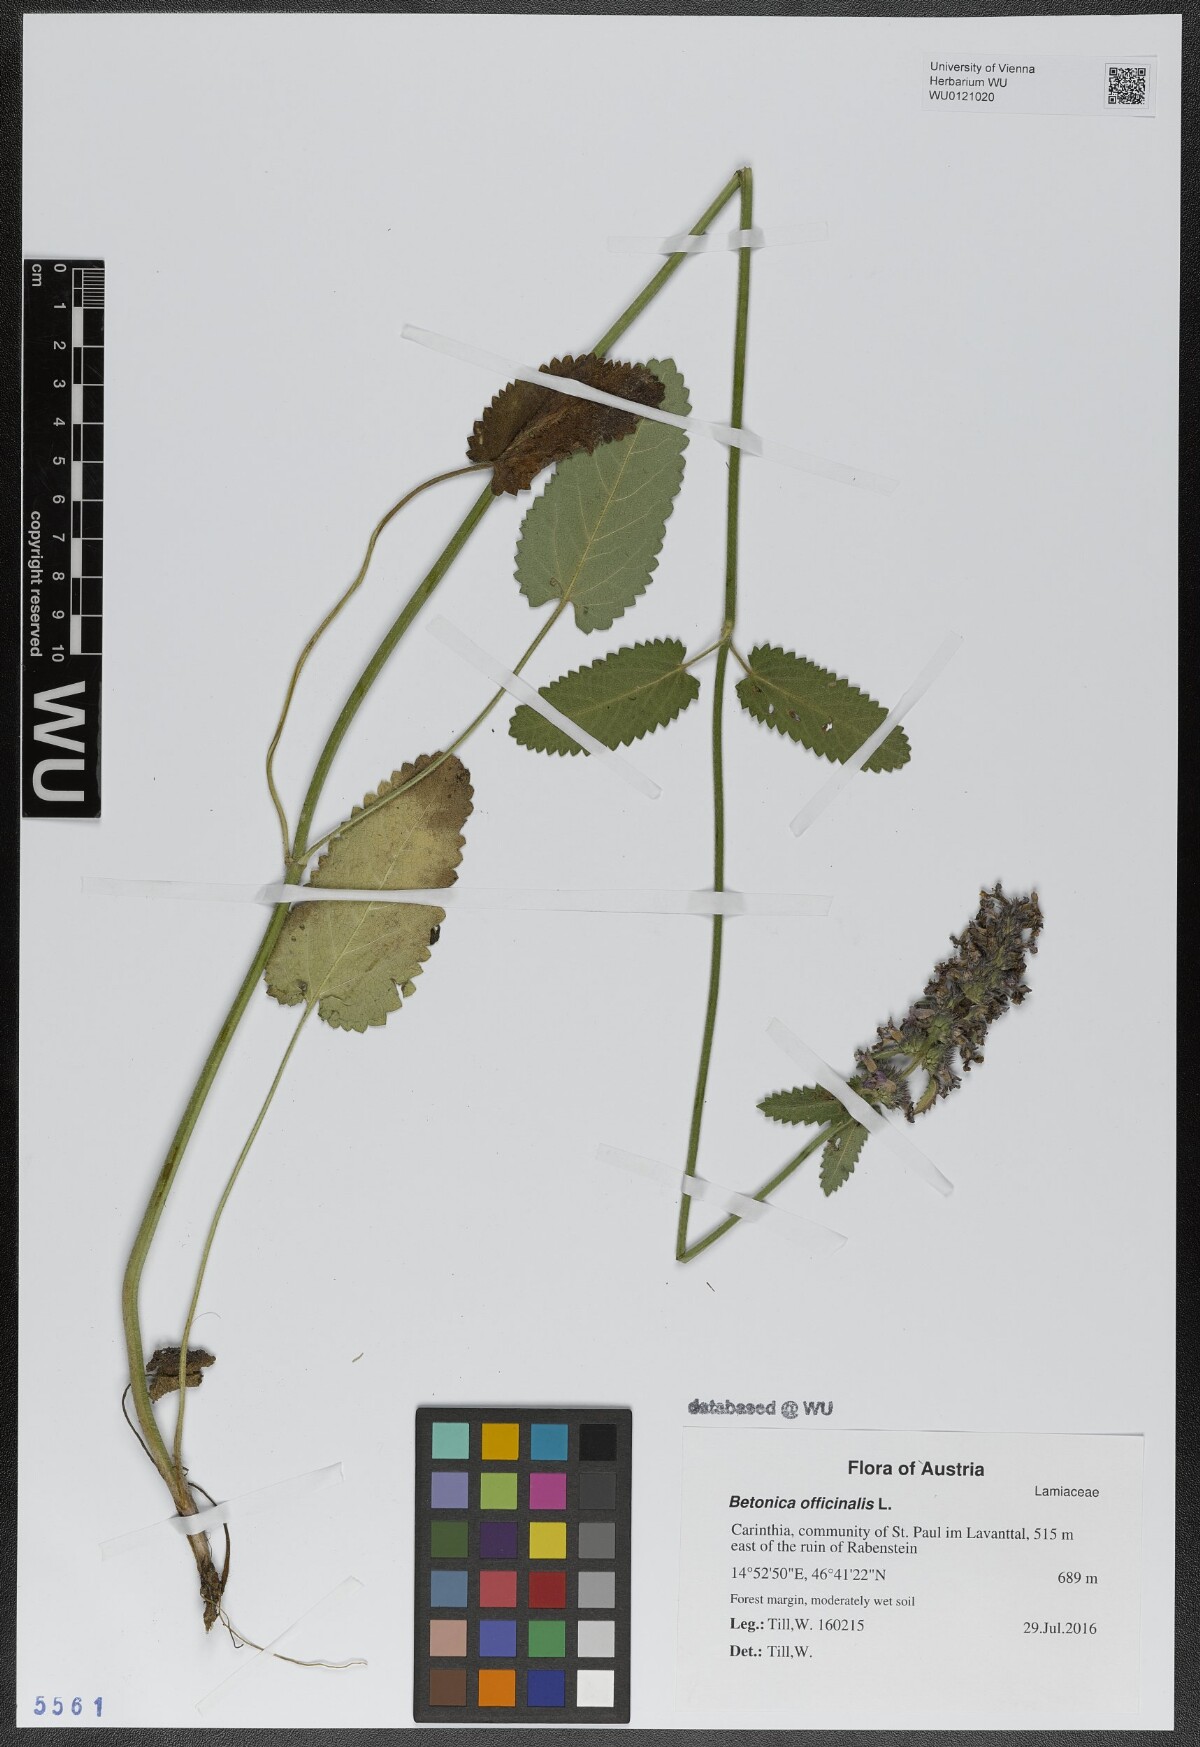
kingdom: Plantae
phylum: Tracheophyta
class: Magnoliopsida
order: Lamiales
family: Lamiaceae
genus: Betonica
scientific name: Betonica officinalis
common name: Bishop's-wort
